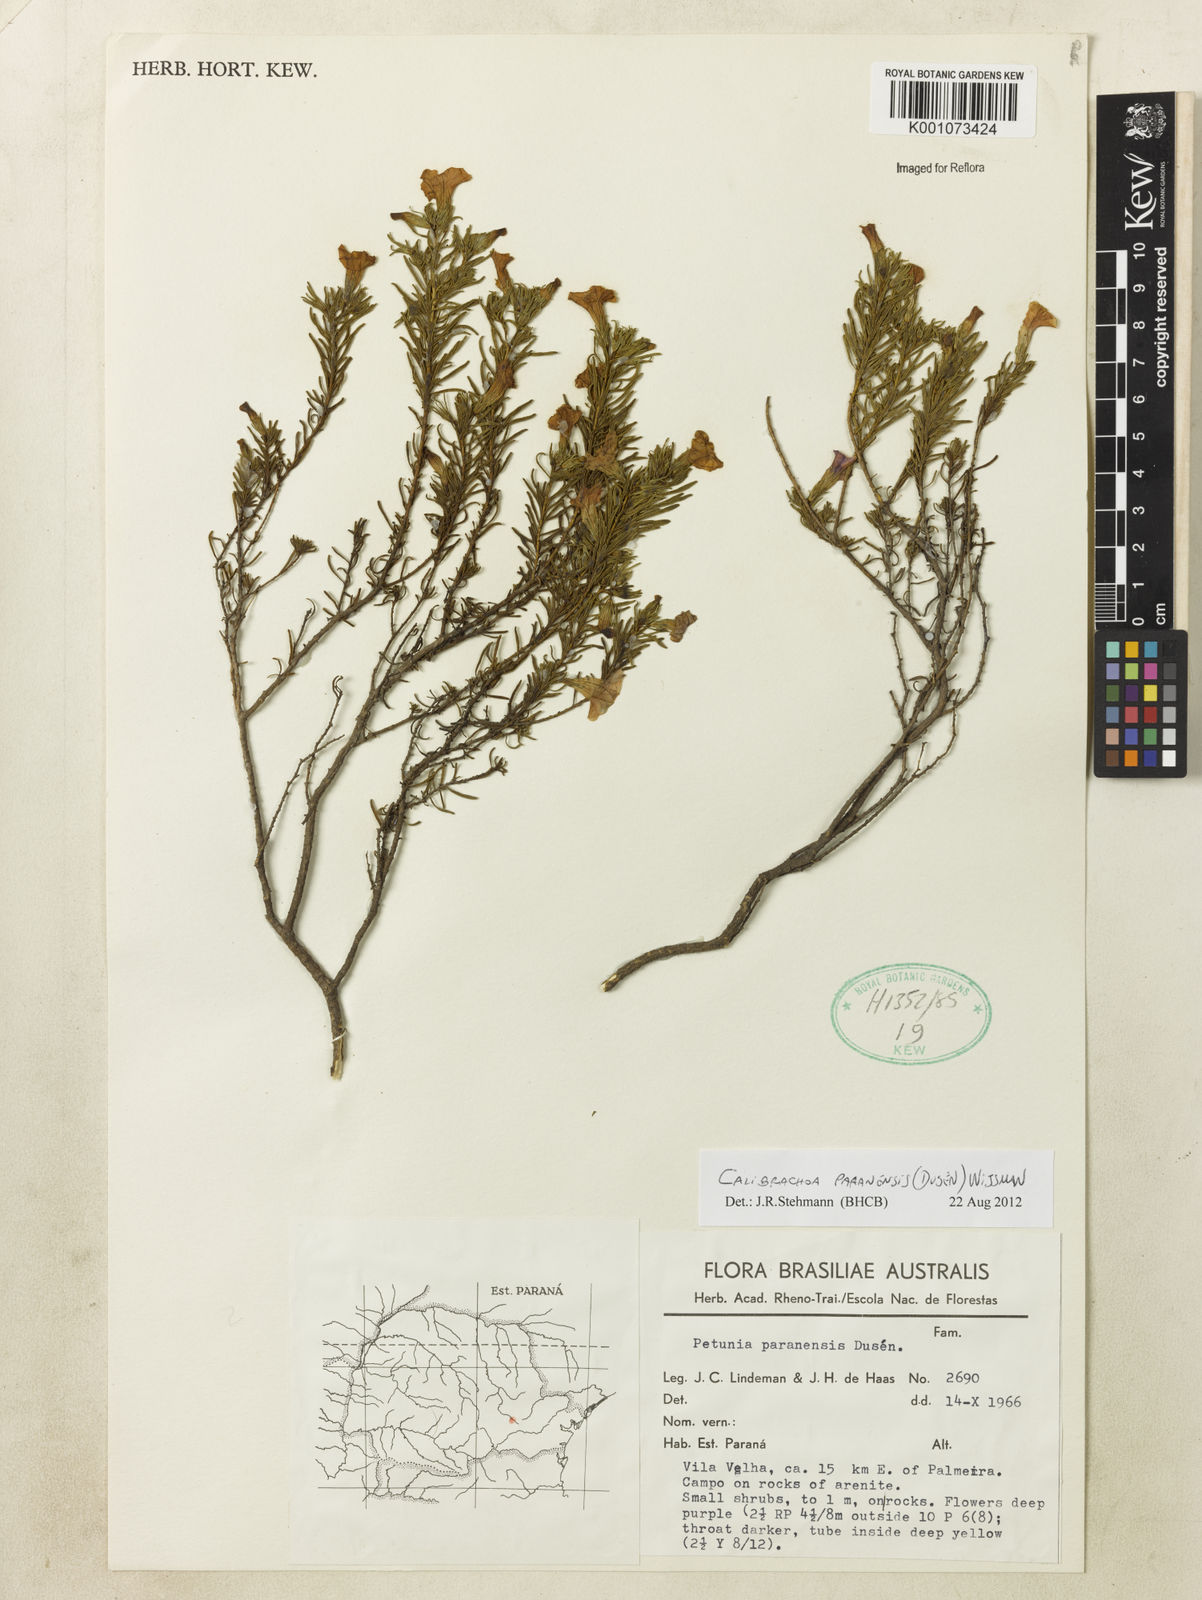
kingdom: Plantae
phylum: Tracheophyta
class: Magnoliopsida
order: Solanales
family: Solanaceae
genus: Calibrachoa
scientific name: Calibrachoa
